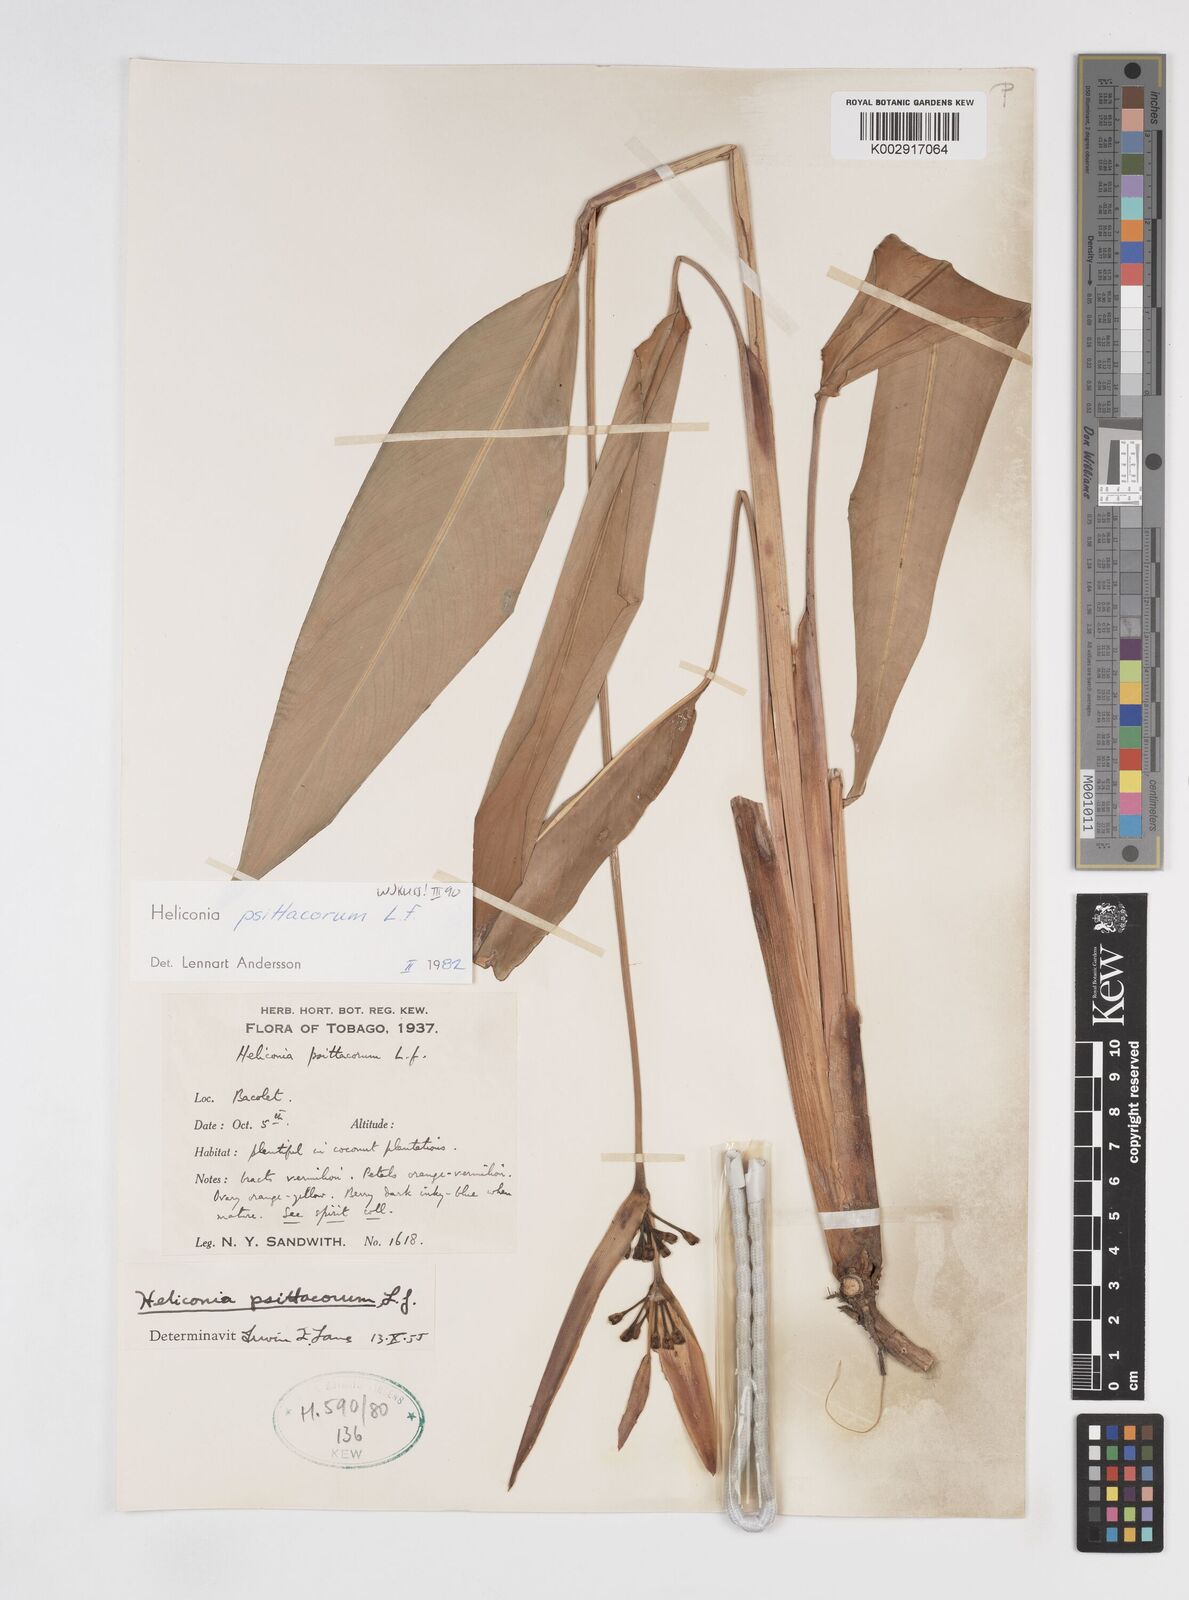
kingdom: Plantae
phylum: Tracheophyta
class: Liliopsida
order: Zingiberales
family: Heliconiaceae
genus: Heliconia
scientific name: Heliconia psittacorum
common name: Parrot's-flower
